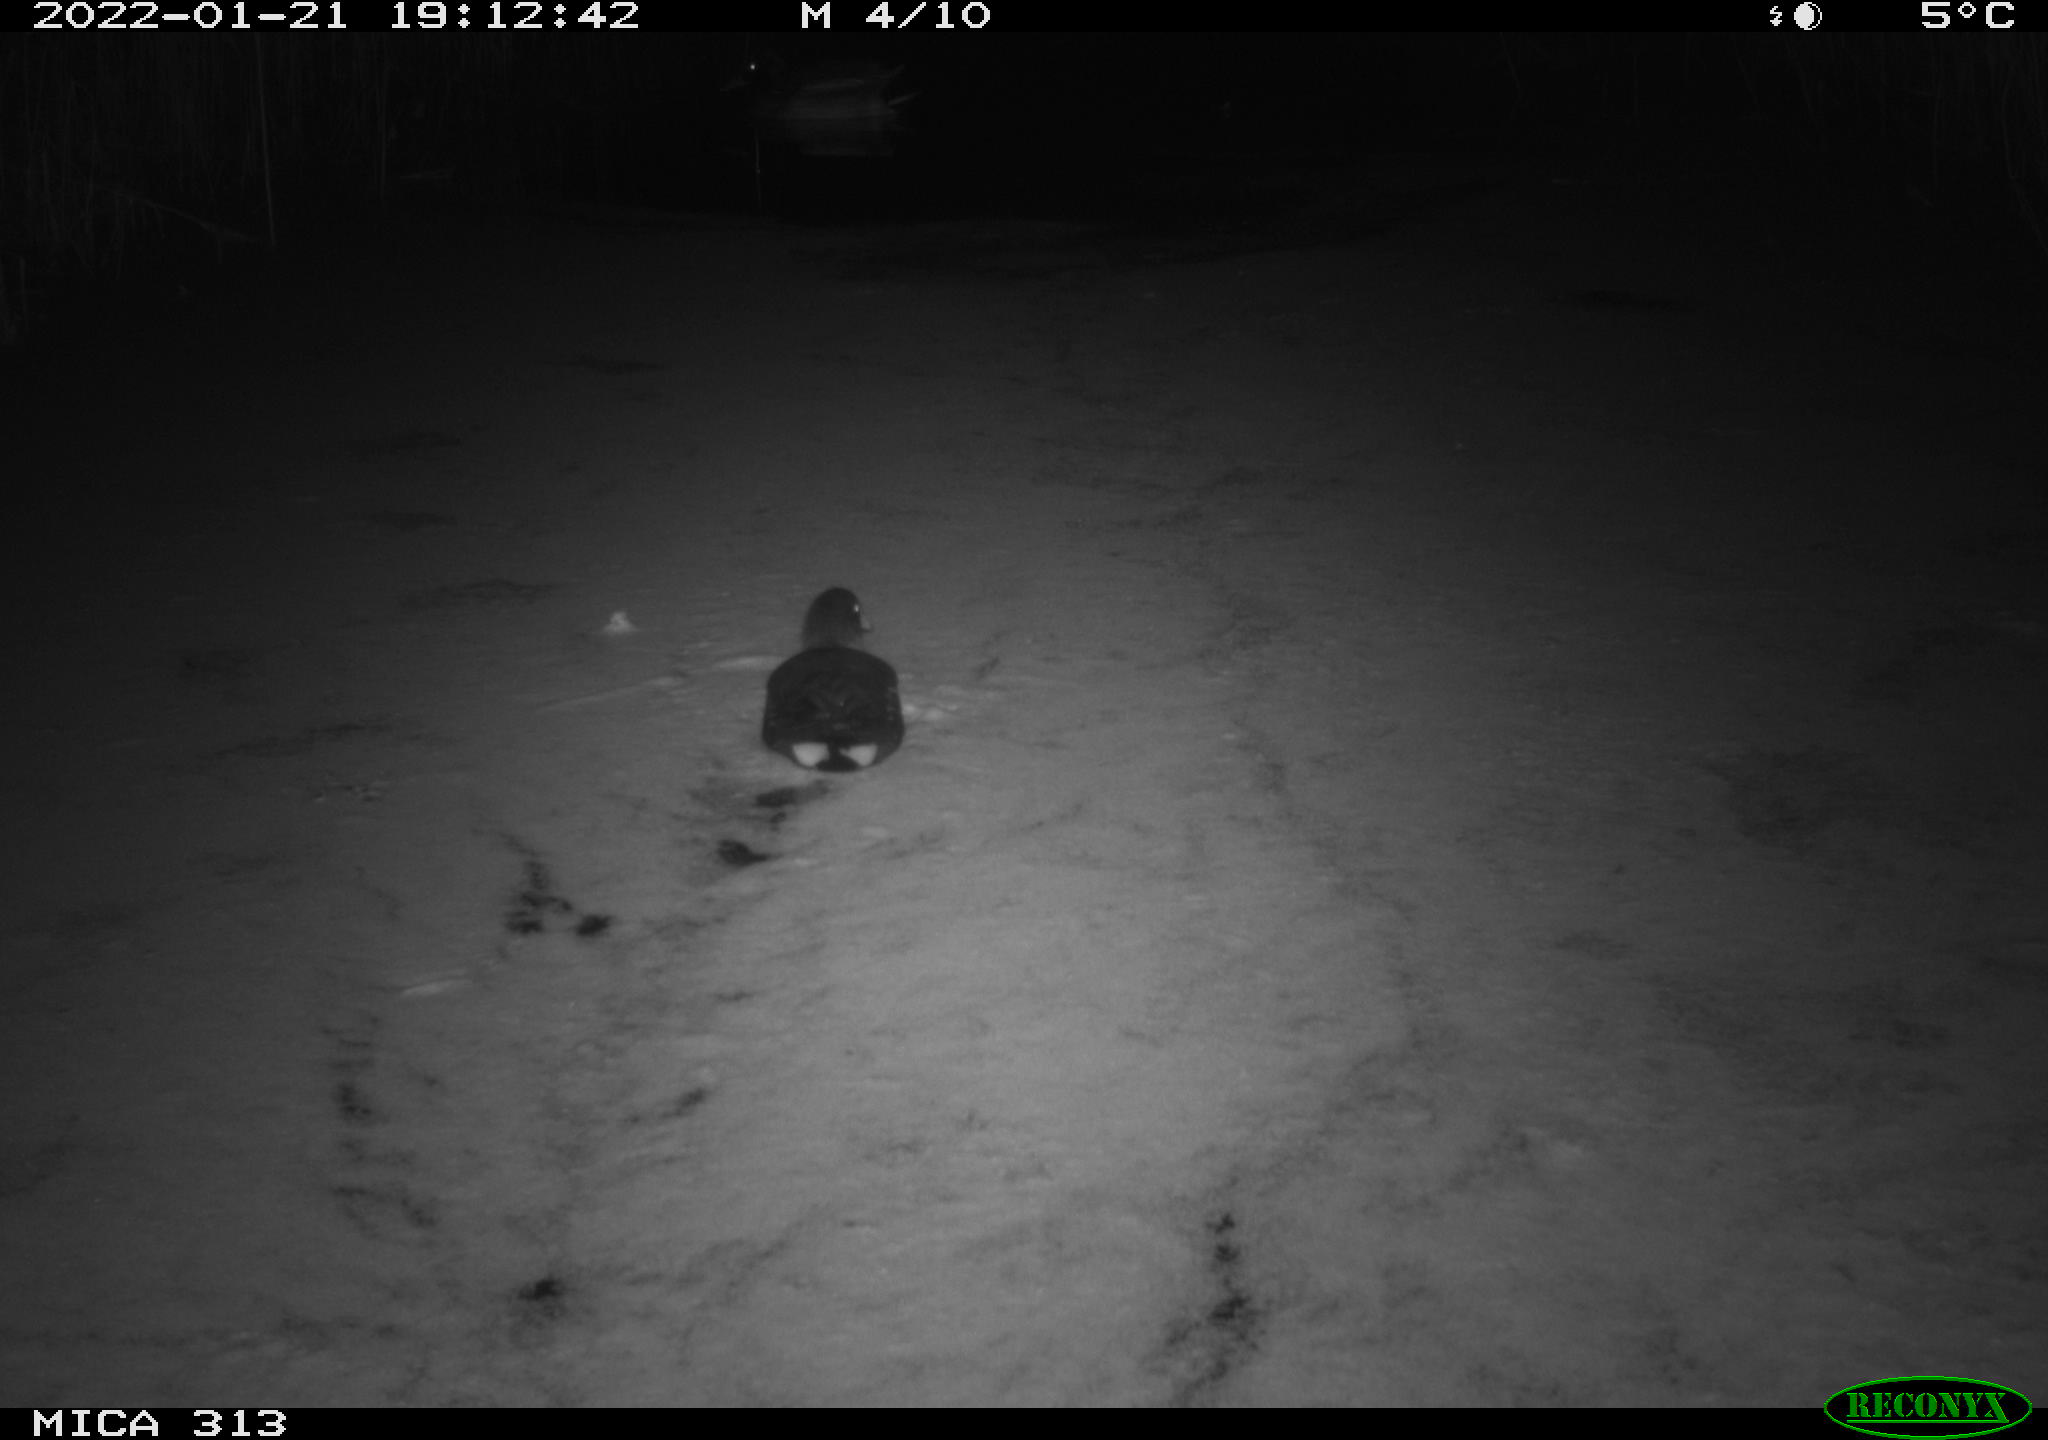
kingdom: Animalia
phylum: Chordata
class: Aves
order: Gruiformes
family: Rallidae
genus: Gallinula
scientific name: Gallinula chloropus
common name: Common moorhen
